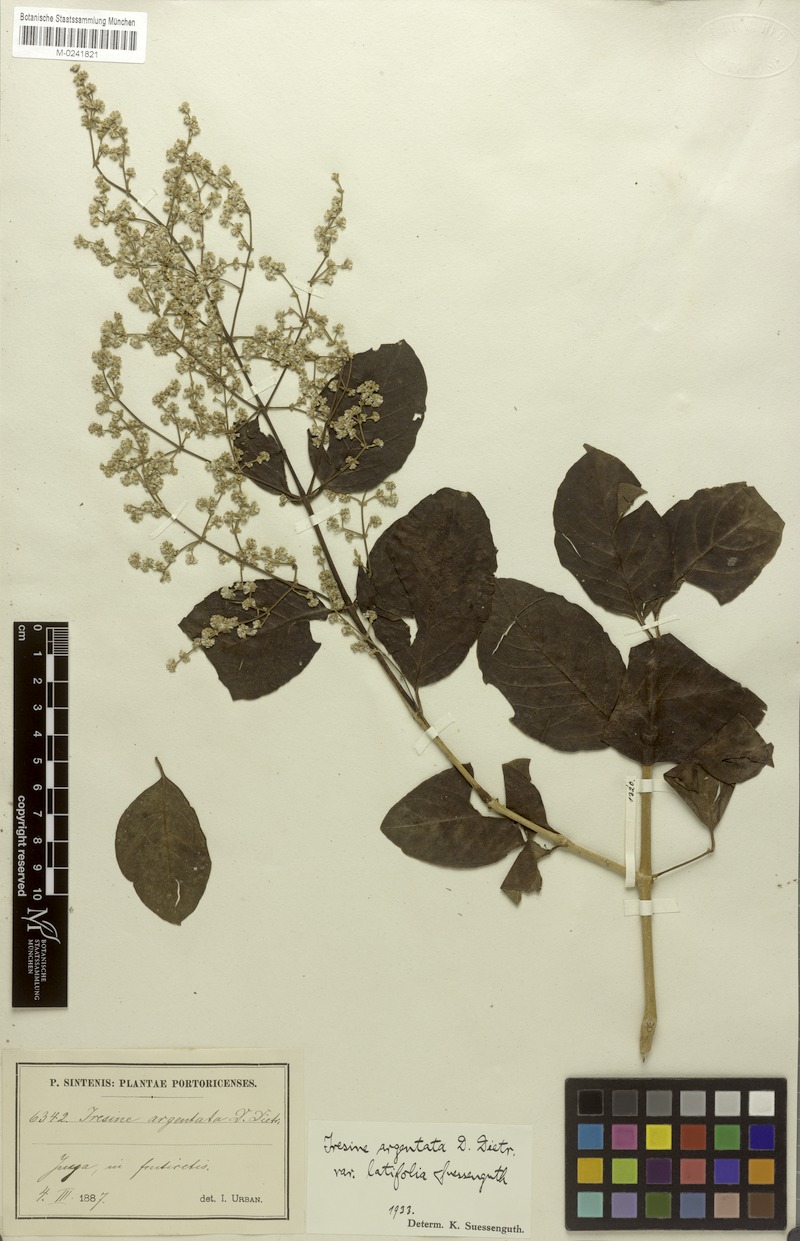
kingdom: Plantae
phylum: Tracheophyta
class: Magnoliopsida
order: Caryophyllales
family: Amaranthaceae
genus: Pedersenia
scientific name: Pedersenia argentata
